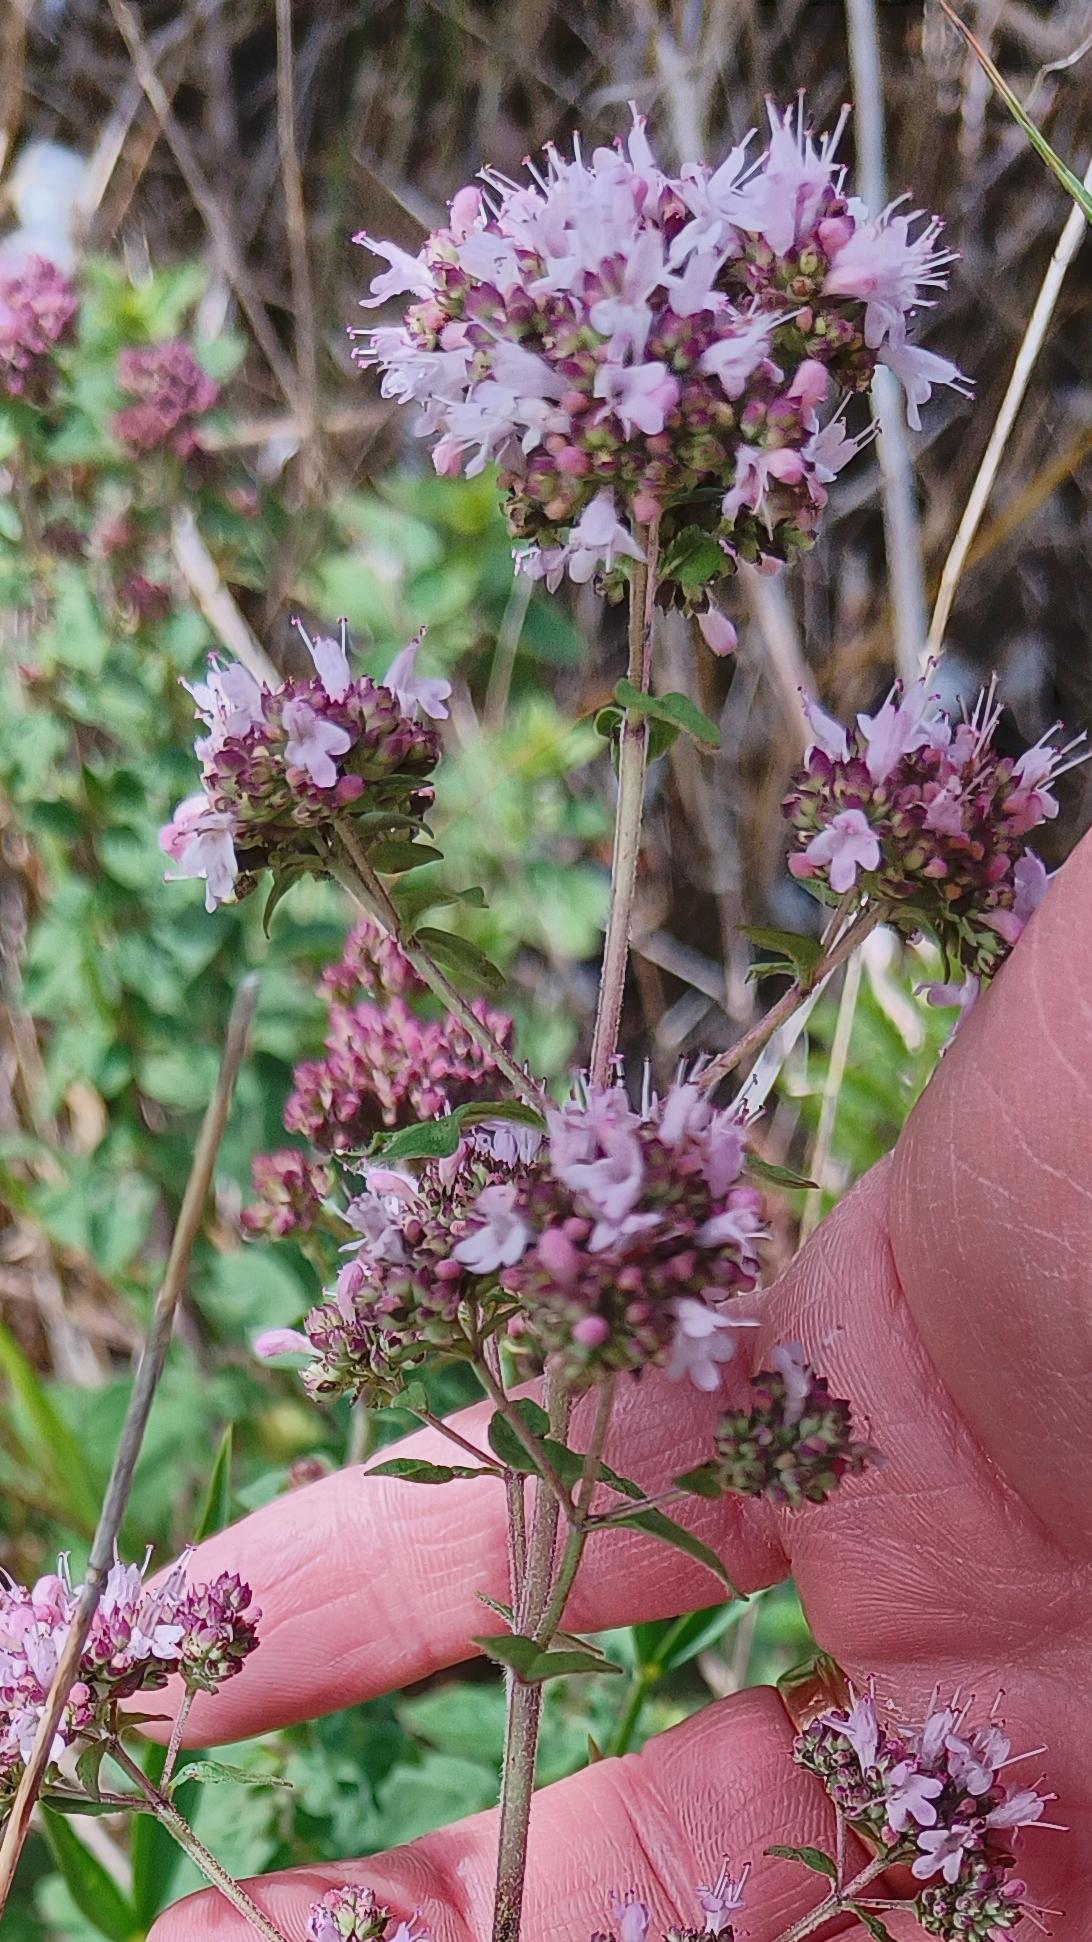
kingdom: Plantae
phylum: Tracheophyta
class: Magnoliopsida
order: Lamiales
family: Lamiaceae
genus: Origanum
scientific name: Origanum vulgare
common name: Merian
